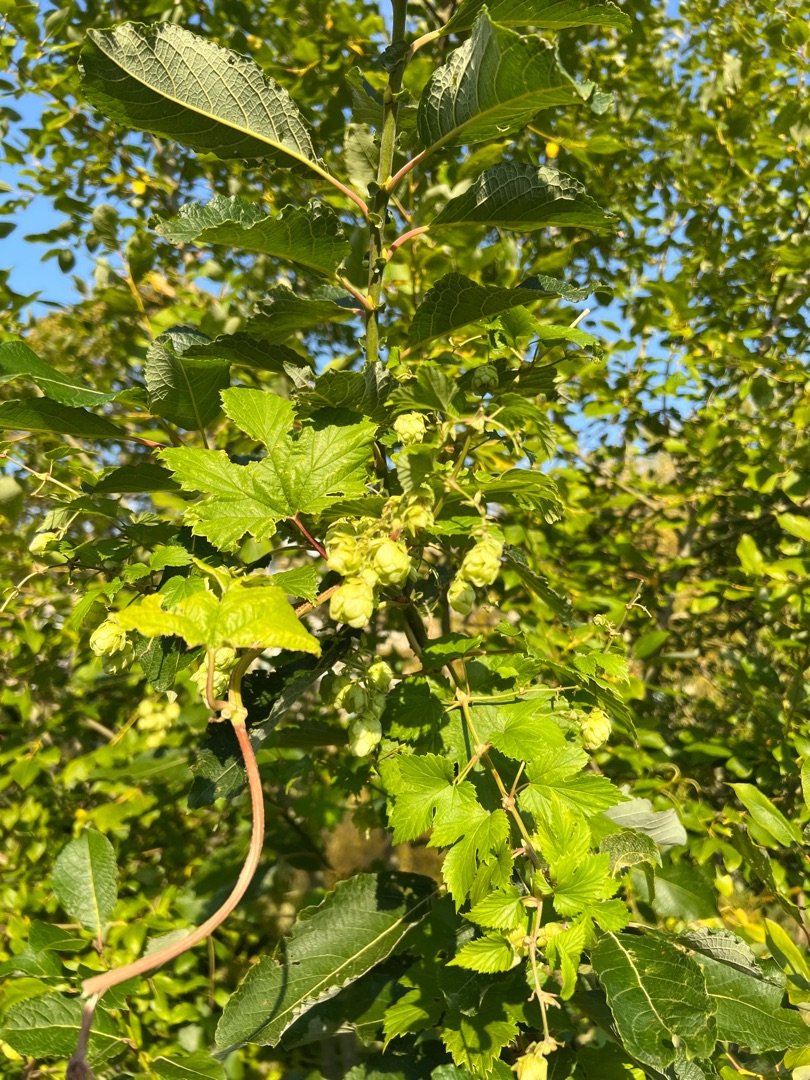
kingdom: Plantae
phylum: Tracheophyta
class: Magnoliopsida
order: Rosales
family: Cannabaceae
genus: Humulus
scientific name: Humulus lupulus
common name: Humle
